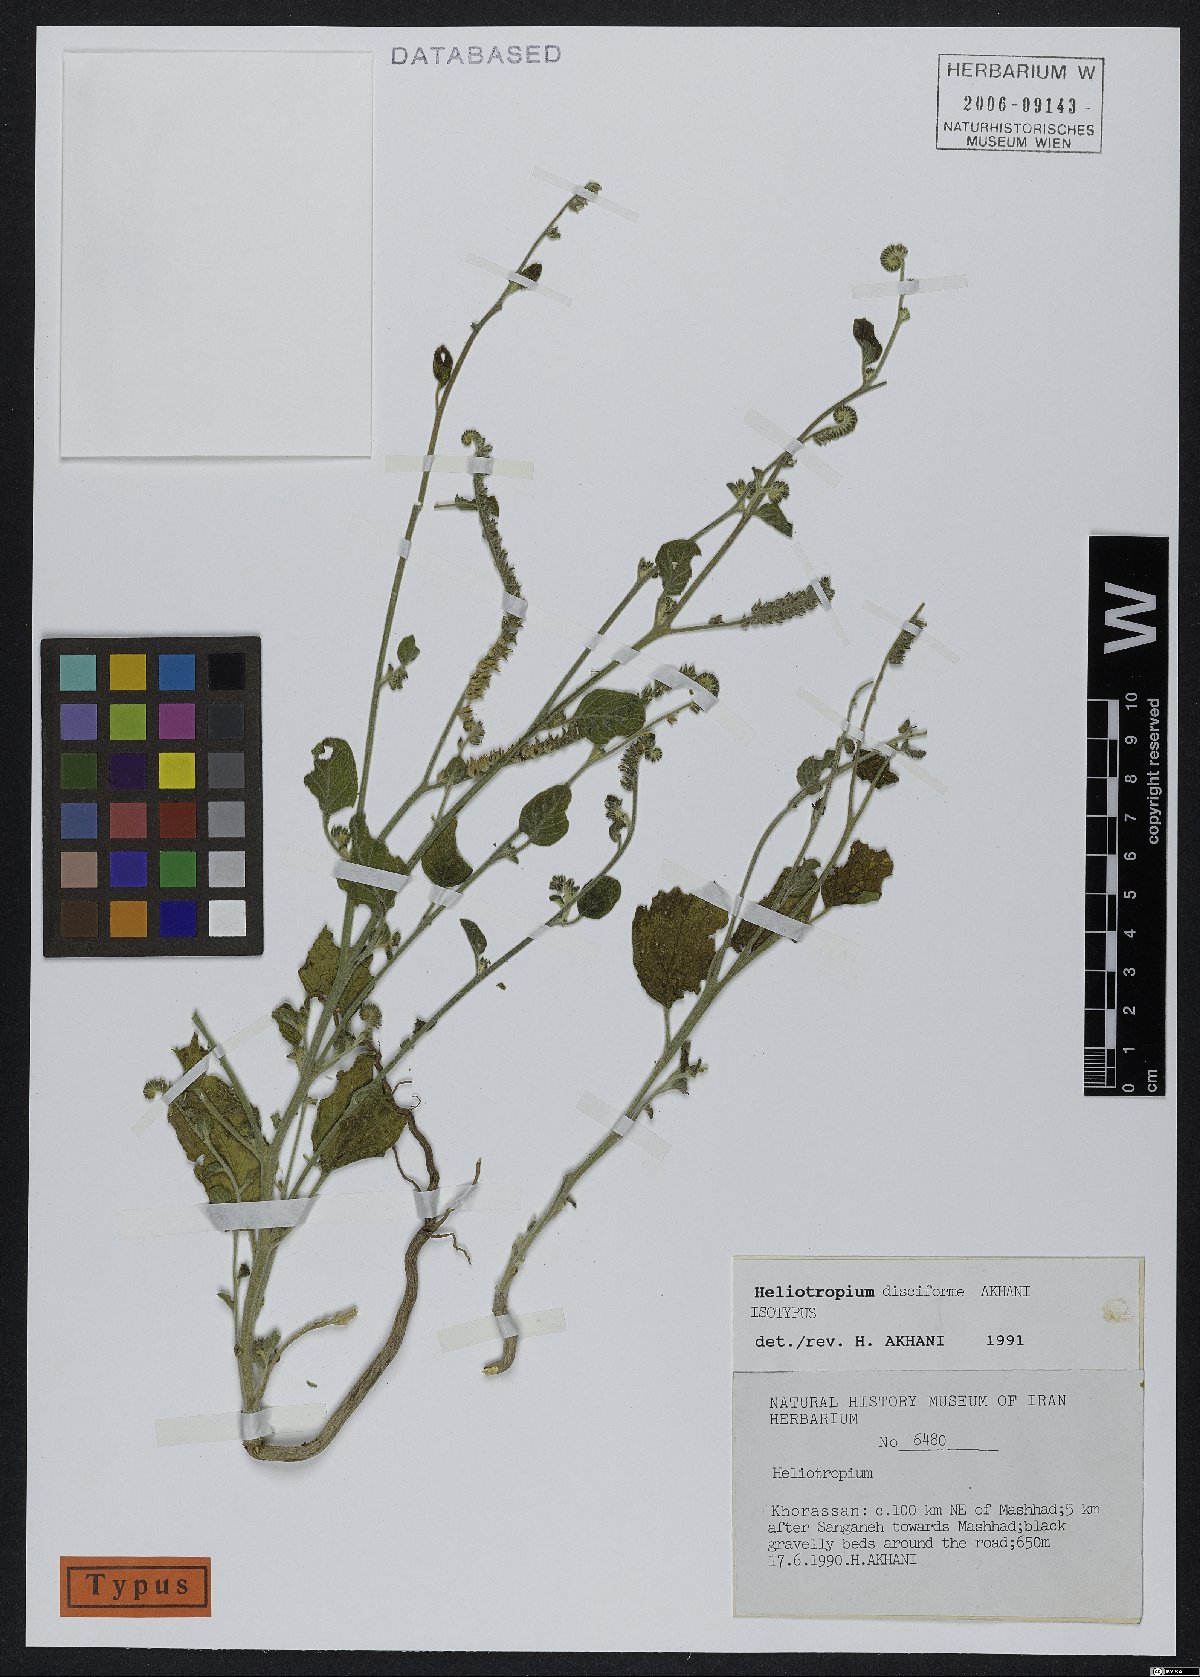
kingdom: Plantae
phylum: Tracheophyta
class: Magnoliopsida
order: Boraginales
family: Heliotropiaceae
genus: Heliotropium
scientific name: Heliotropium disciforme
